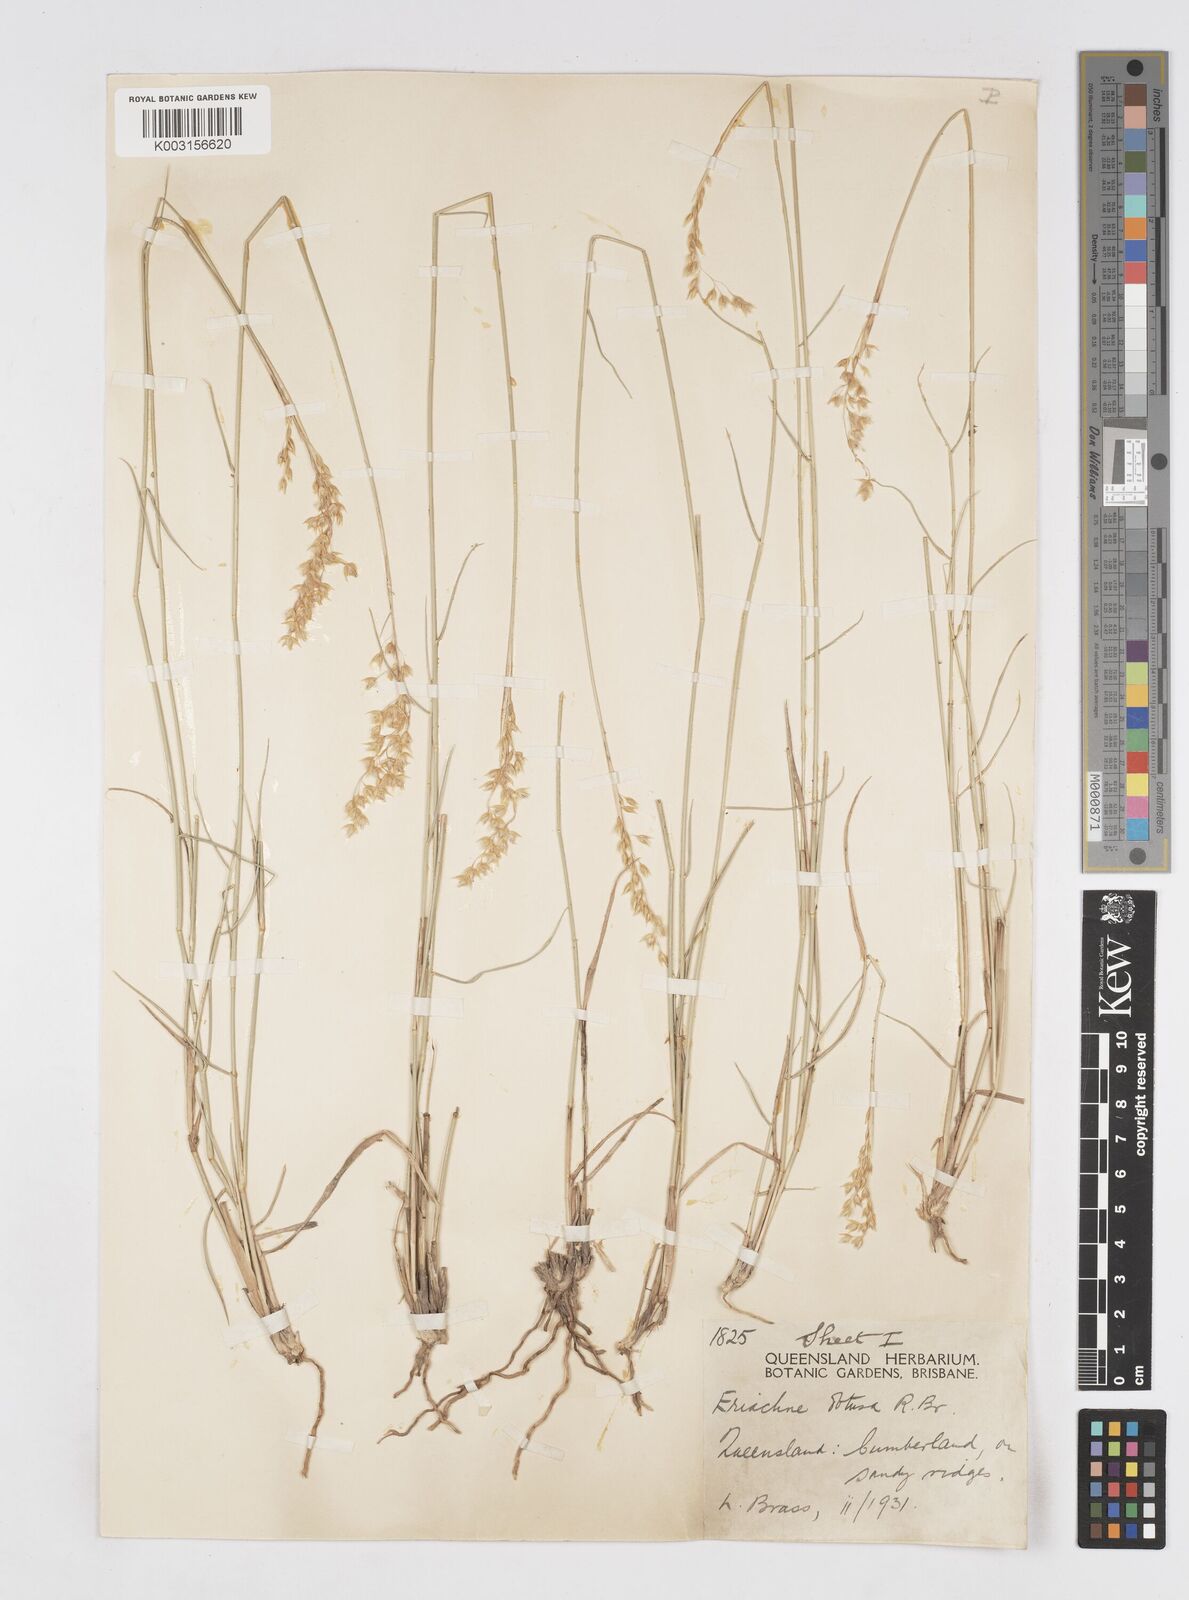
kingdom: Plantae
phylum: Tracheophyta
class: Liliopsida
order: Poales
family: Poaceae
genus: Eriachne
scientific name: Eriachne obtusa
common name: Northern wanderrie grass
